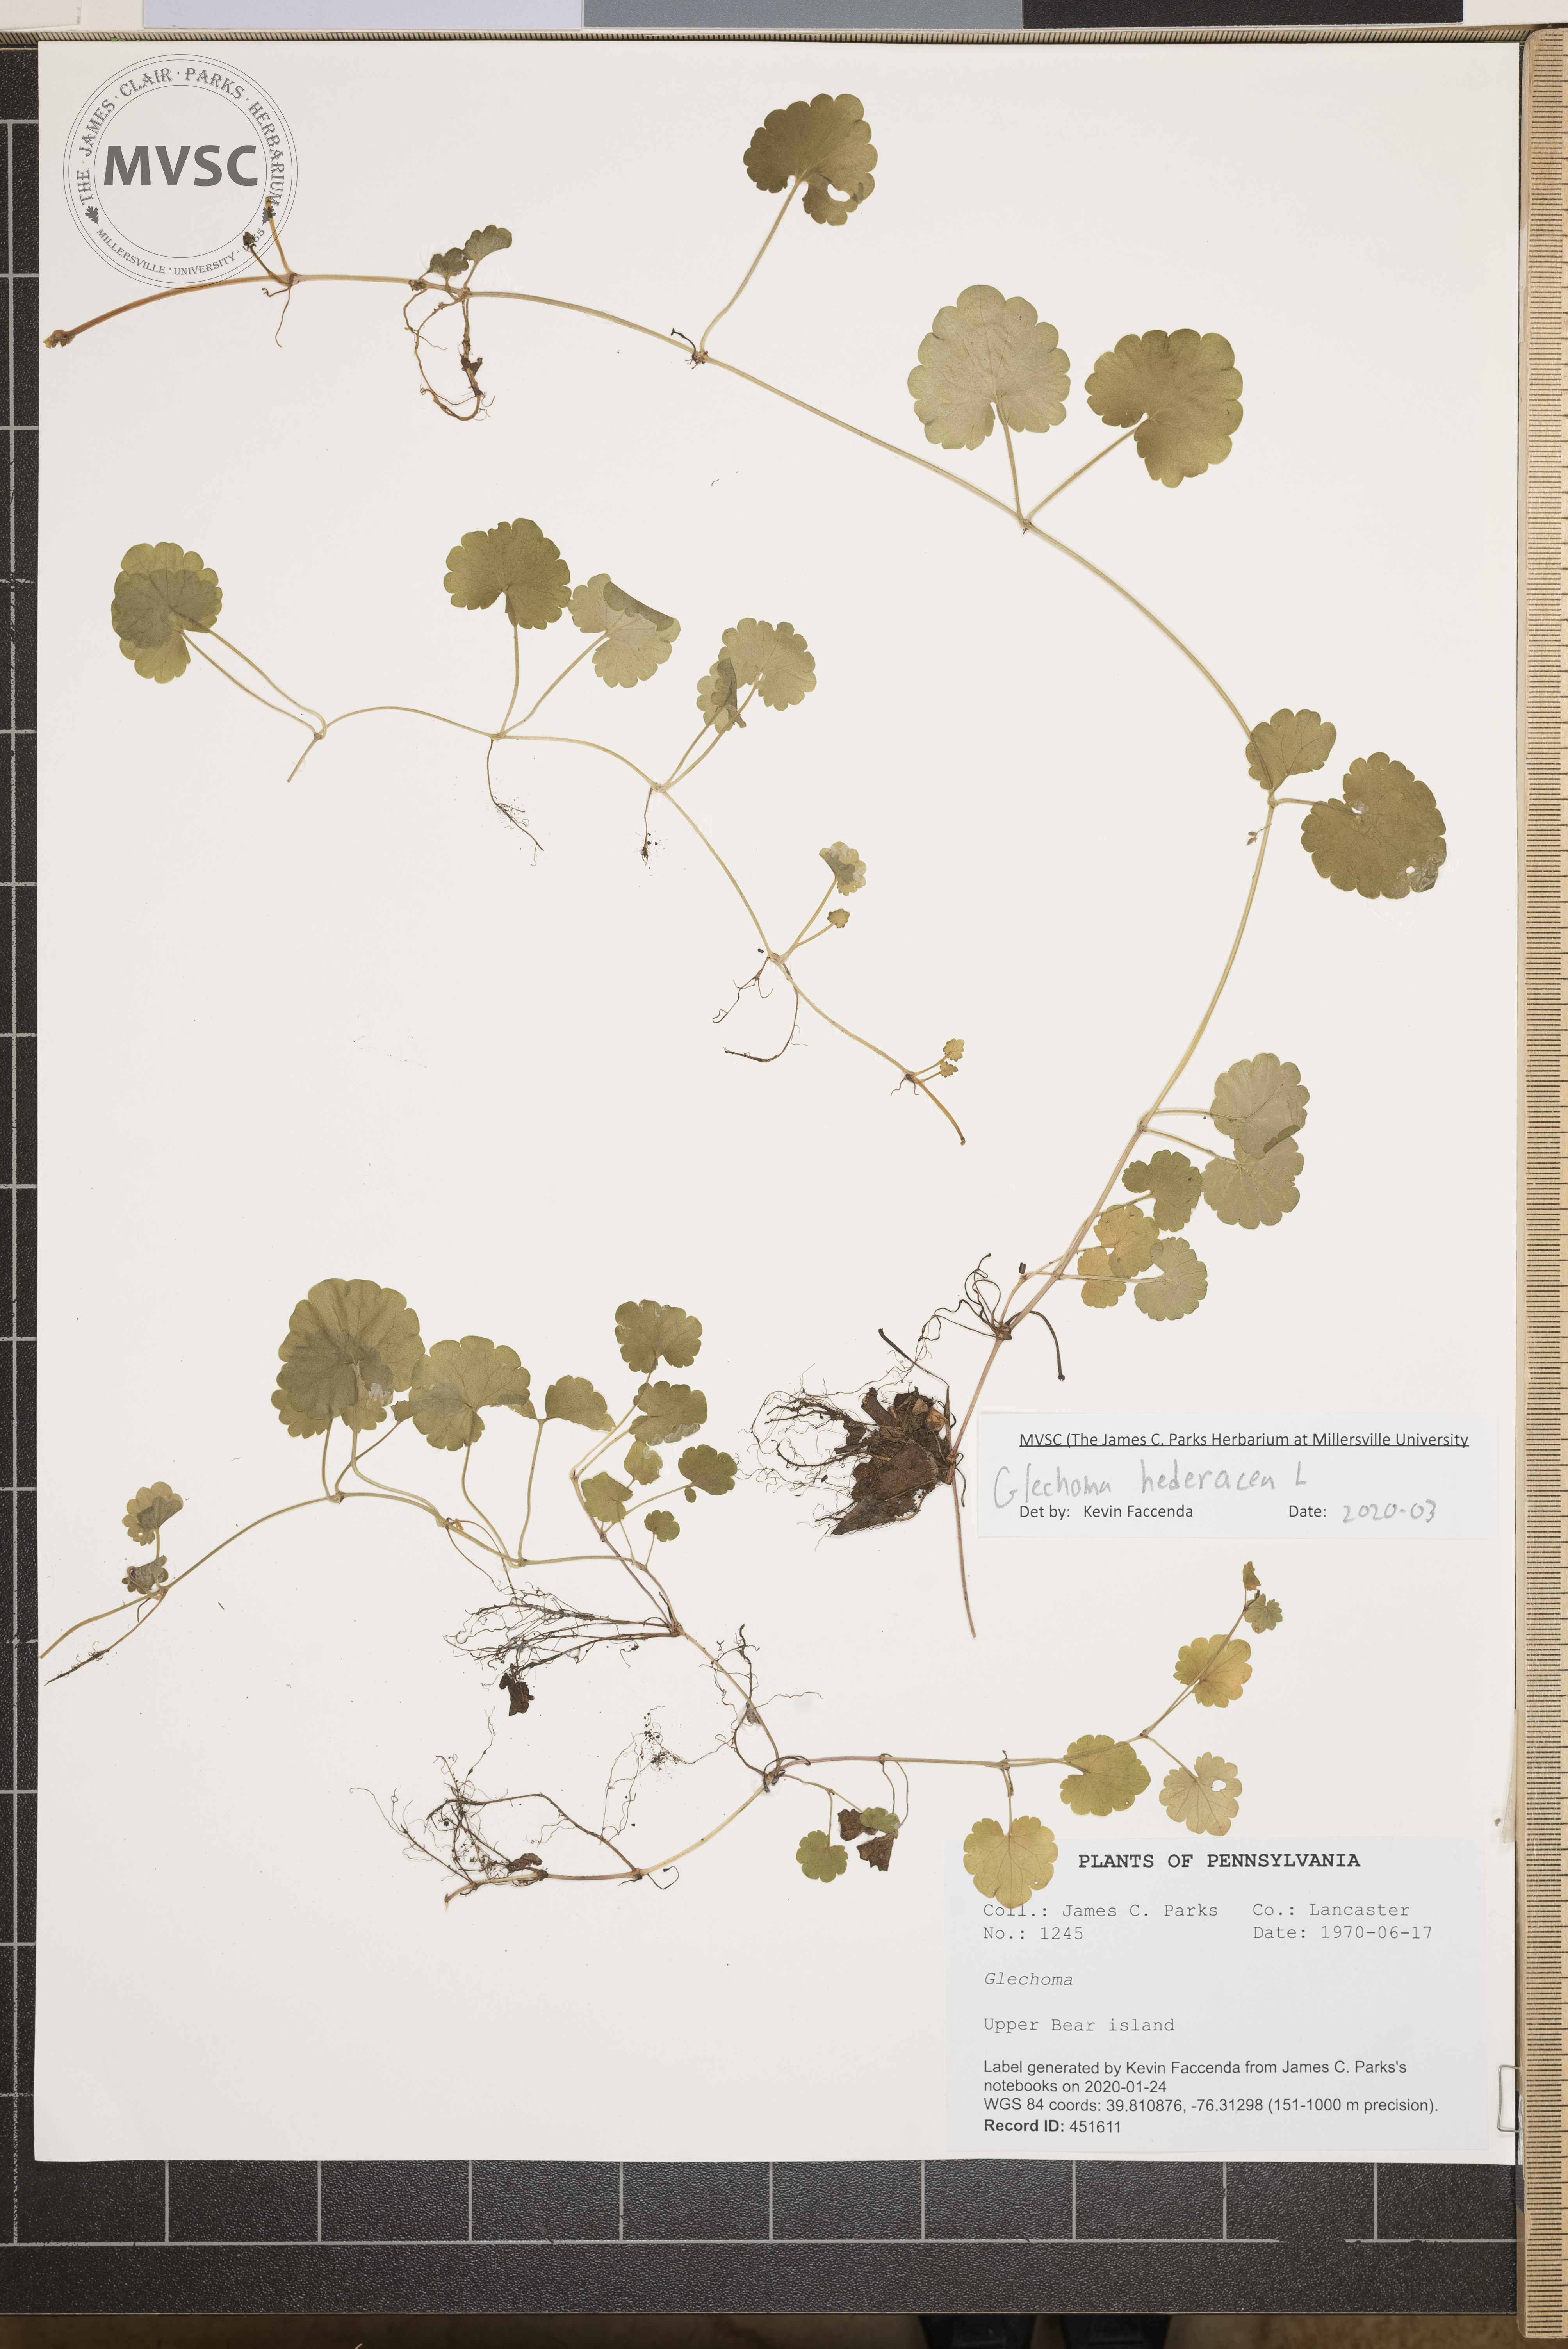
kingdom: Plantae
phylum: Tracheophyta
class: Magnoliopsida
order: Lamiales
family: Lamiaceae
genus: Glechoma
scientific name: Glechoma hederacea
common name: Ground ivy
